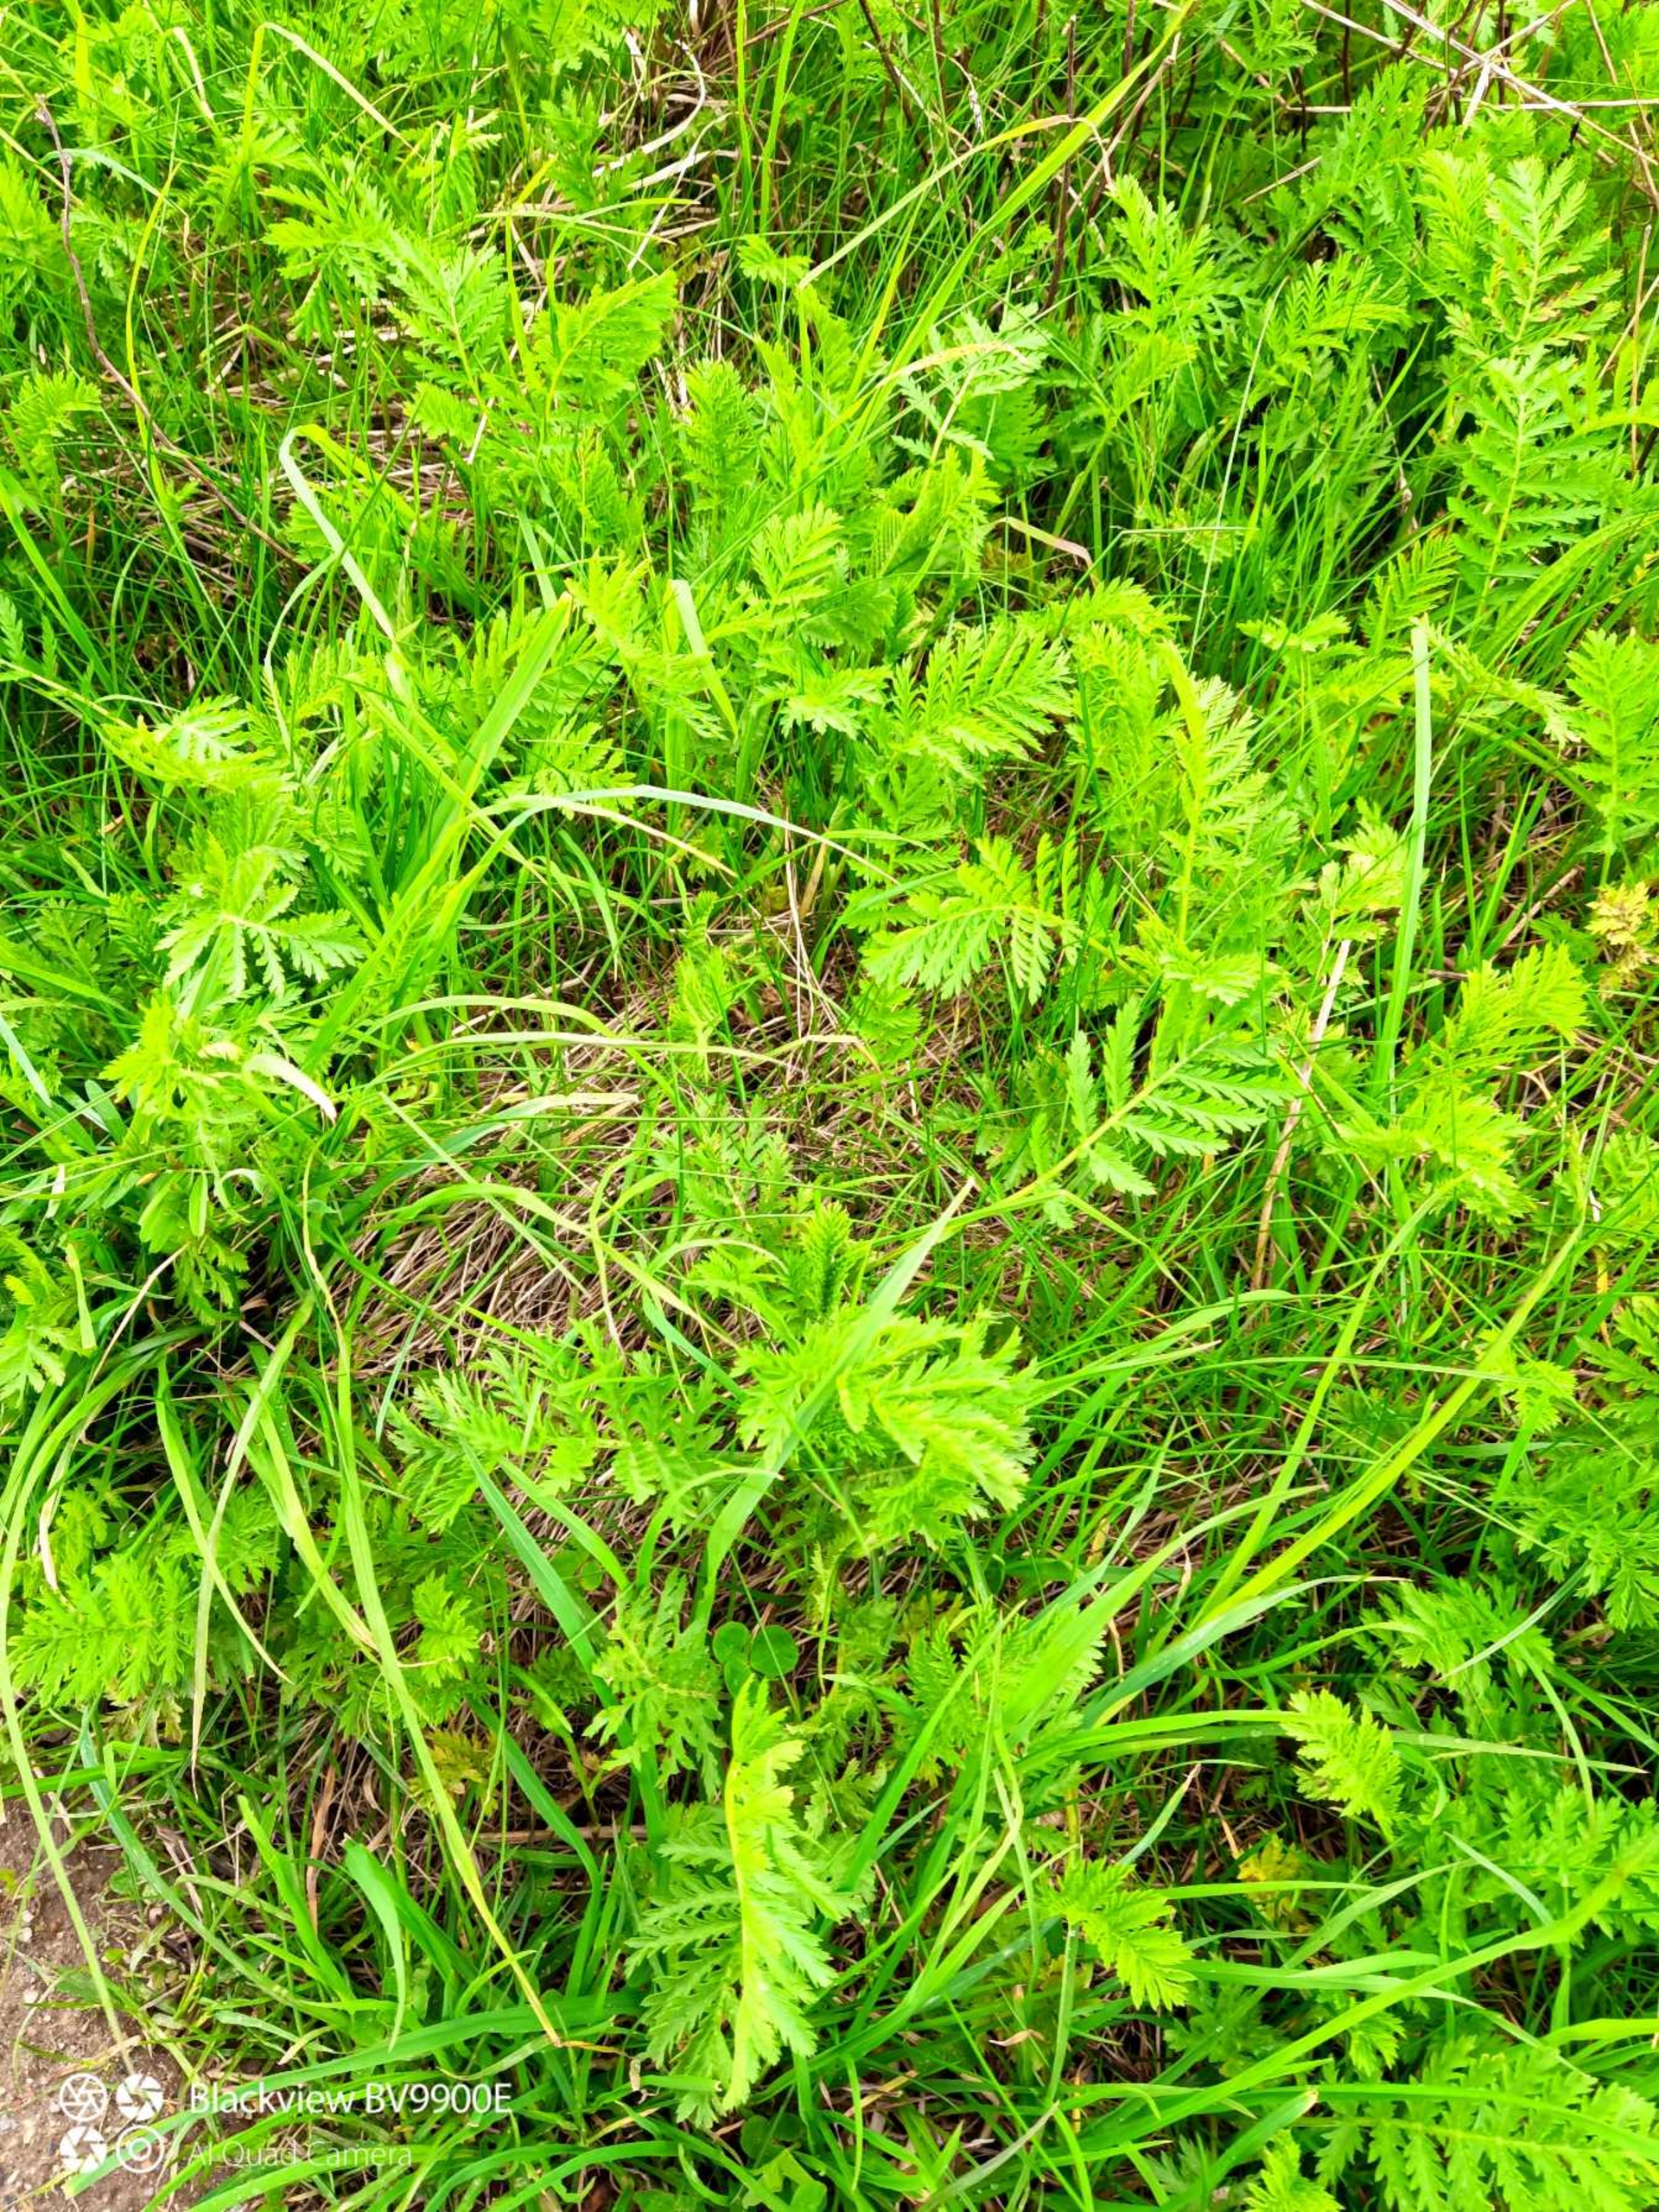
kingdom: Plantae
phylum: Tracheophyta
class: Magnoliopsida
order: Asterales
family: Asteraceae
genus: Tanacetum
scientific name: Tanacetum vulgare
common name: Rejnfan
